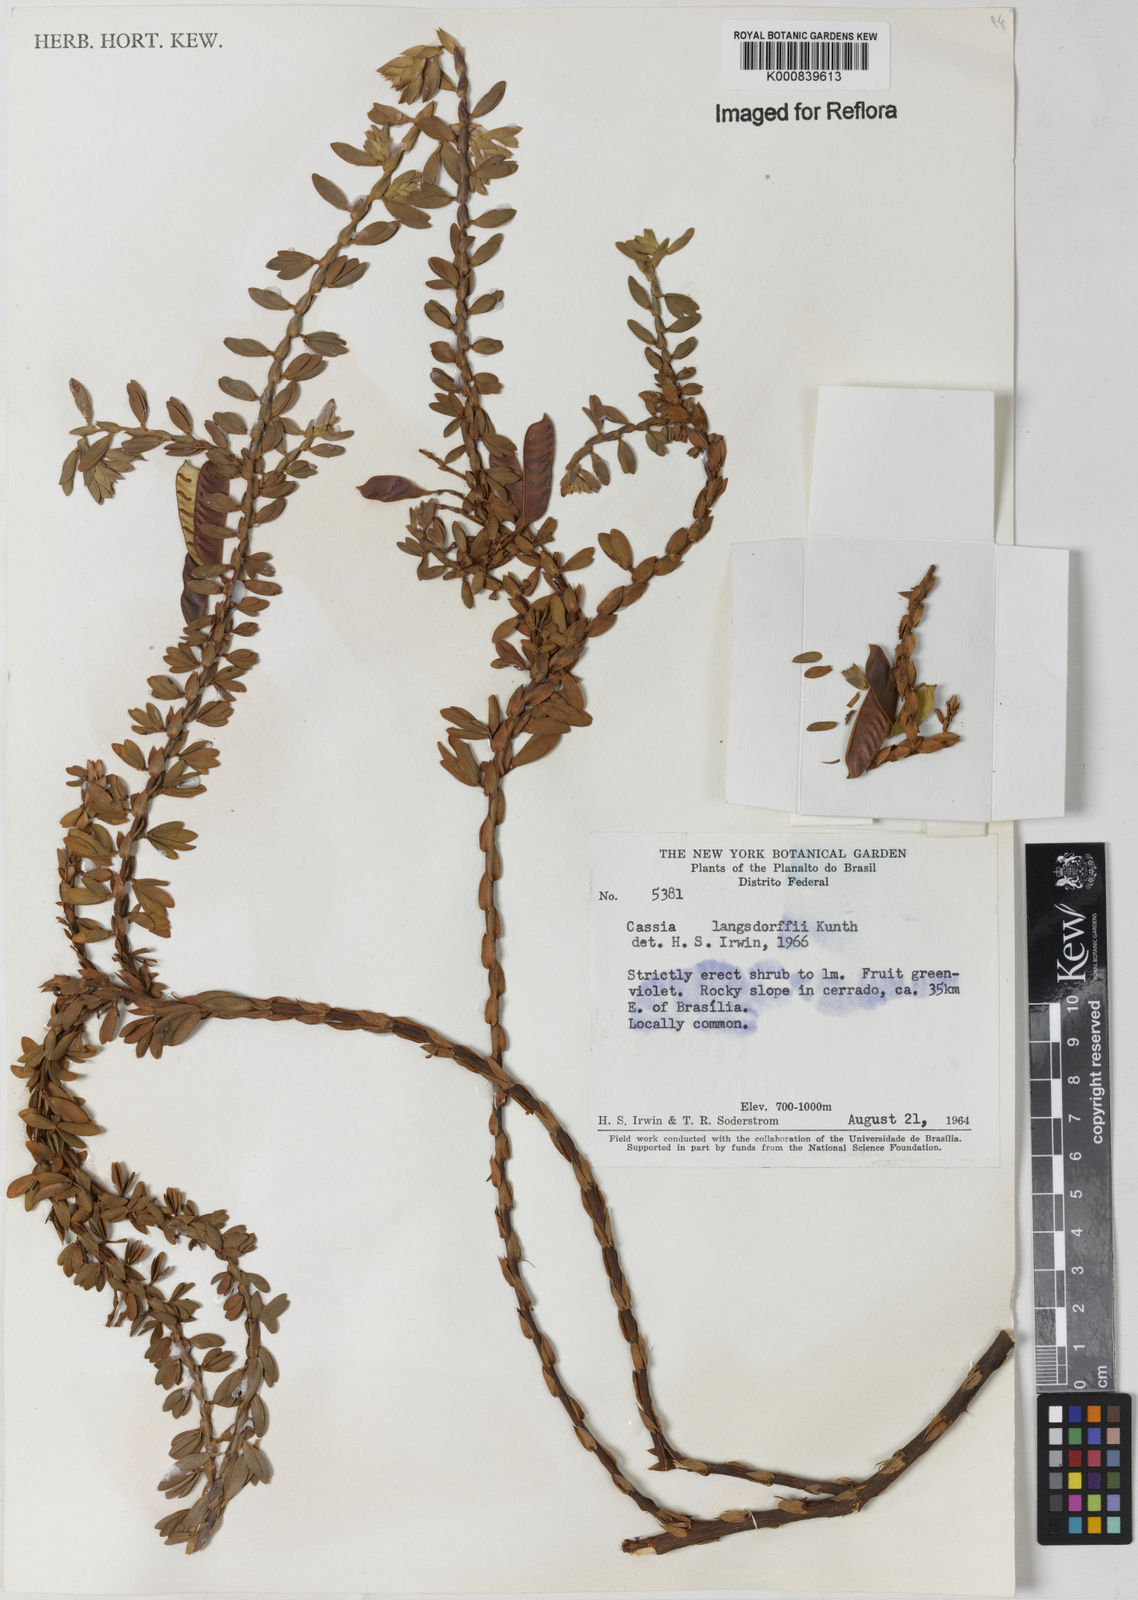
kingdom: Plantae
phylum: Tracheophyta
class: Magnoliopsida
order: Fabales
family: Fabaceae
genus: Chamaecrista
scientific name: Chamaecrista langsdorffii
